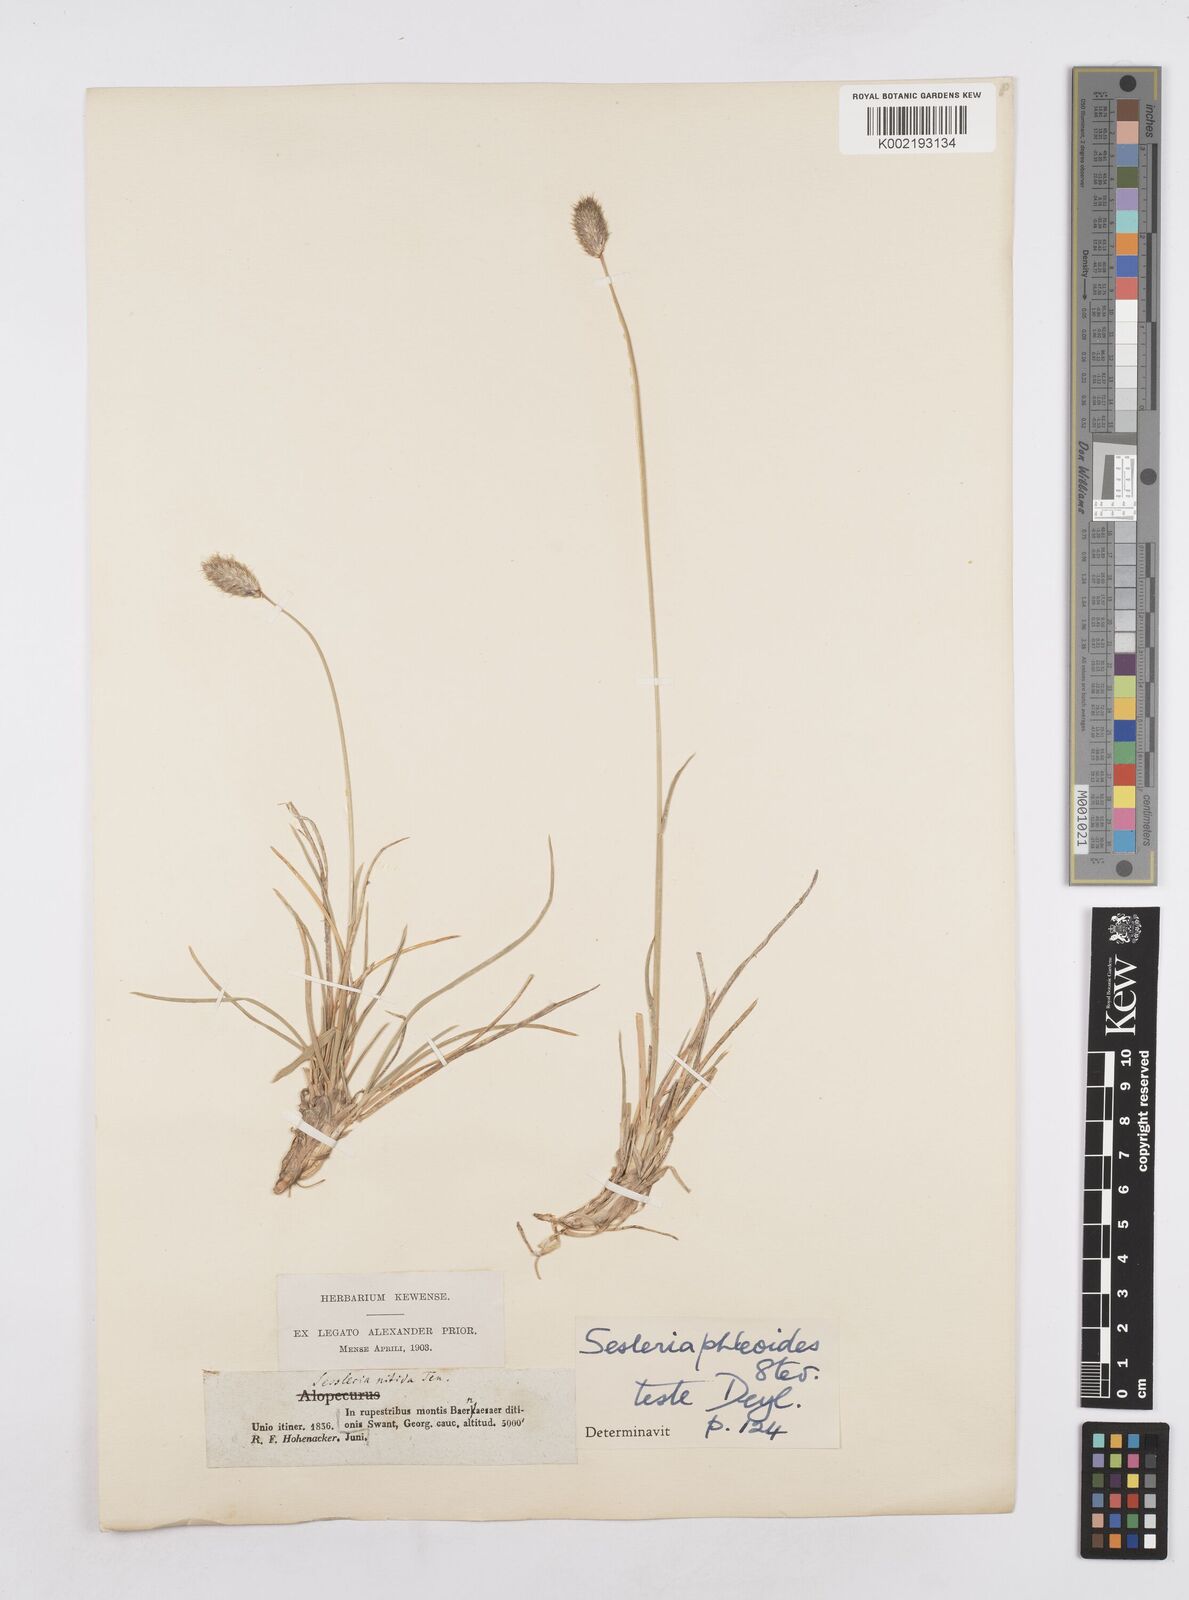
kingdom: Plantae
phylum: Tracheophyta
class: Liliopsida
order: Poales
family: Poaceae
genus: Sesleria
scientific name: Sesleria nitida
